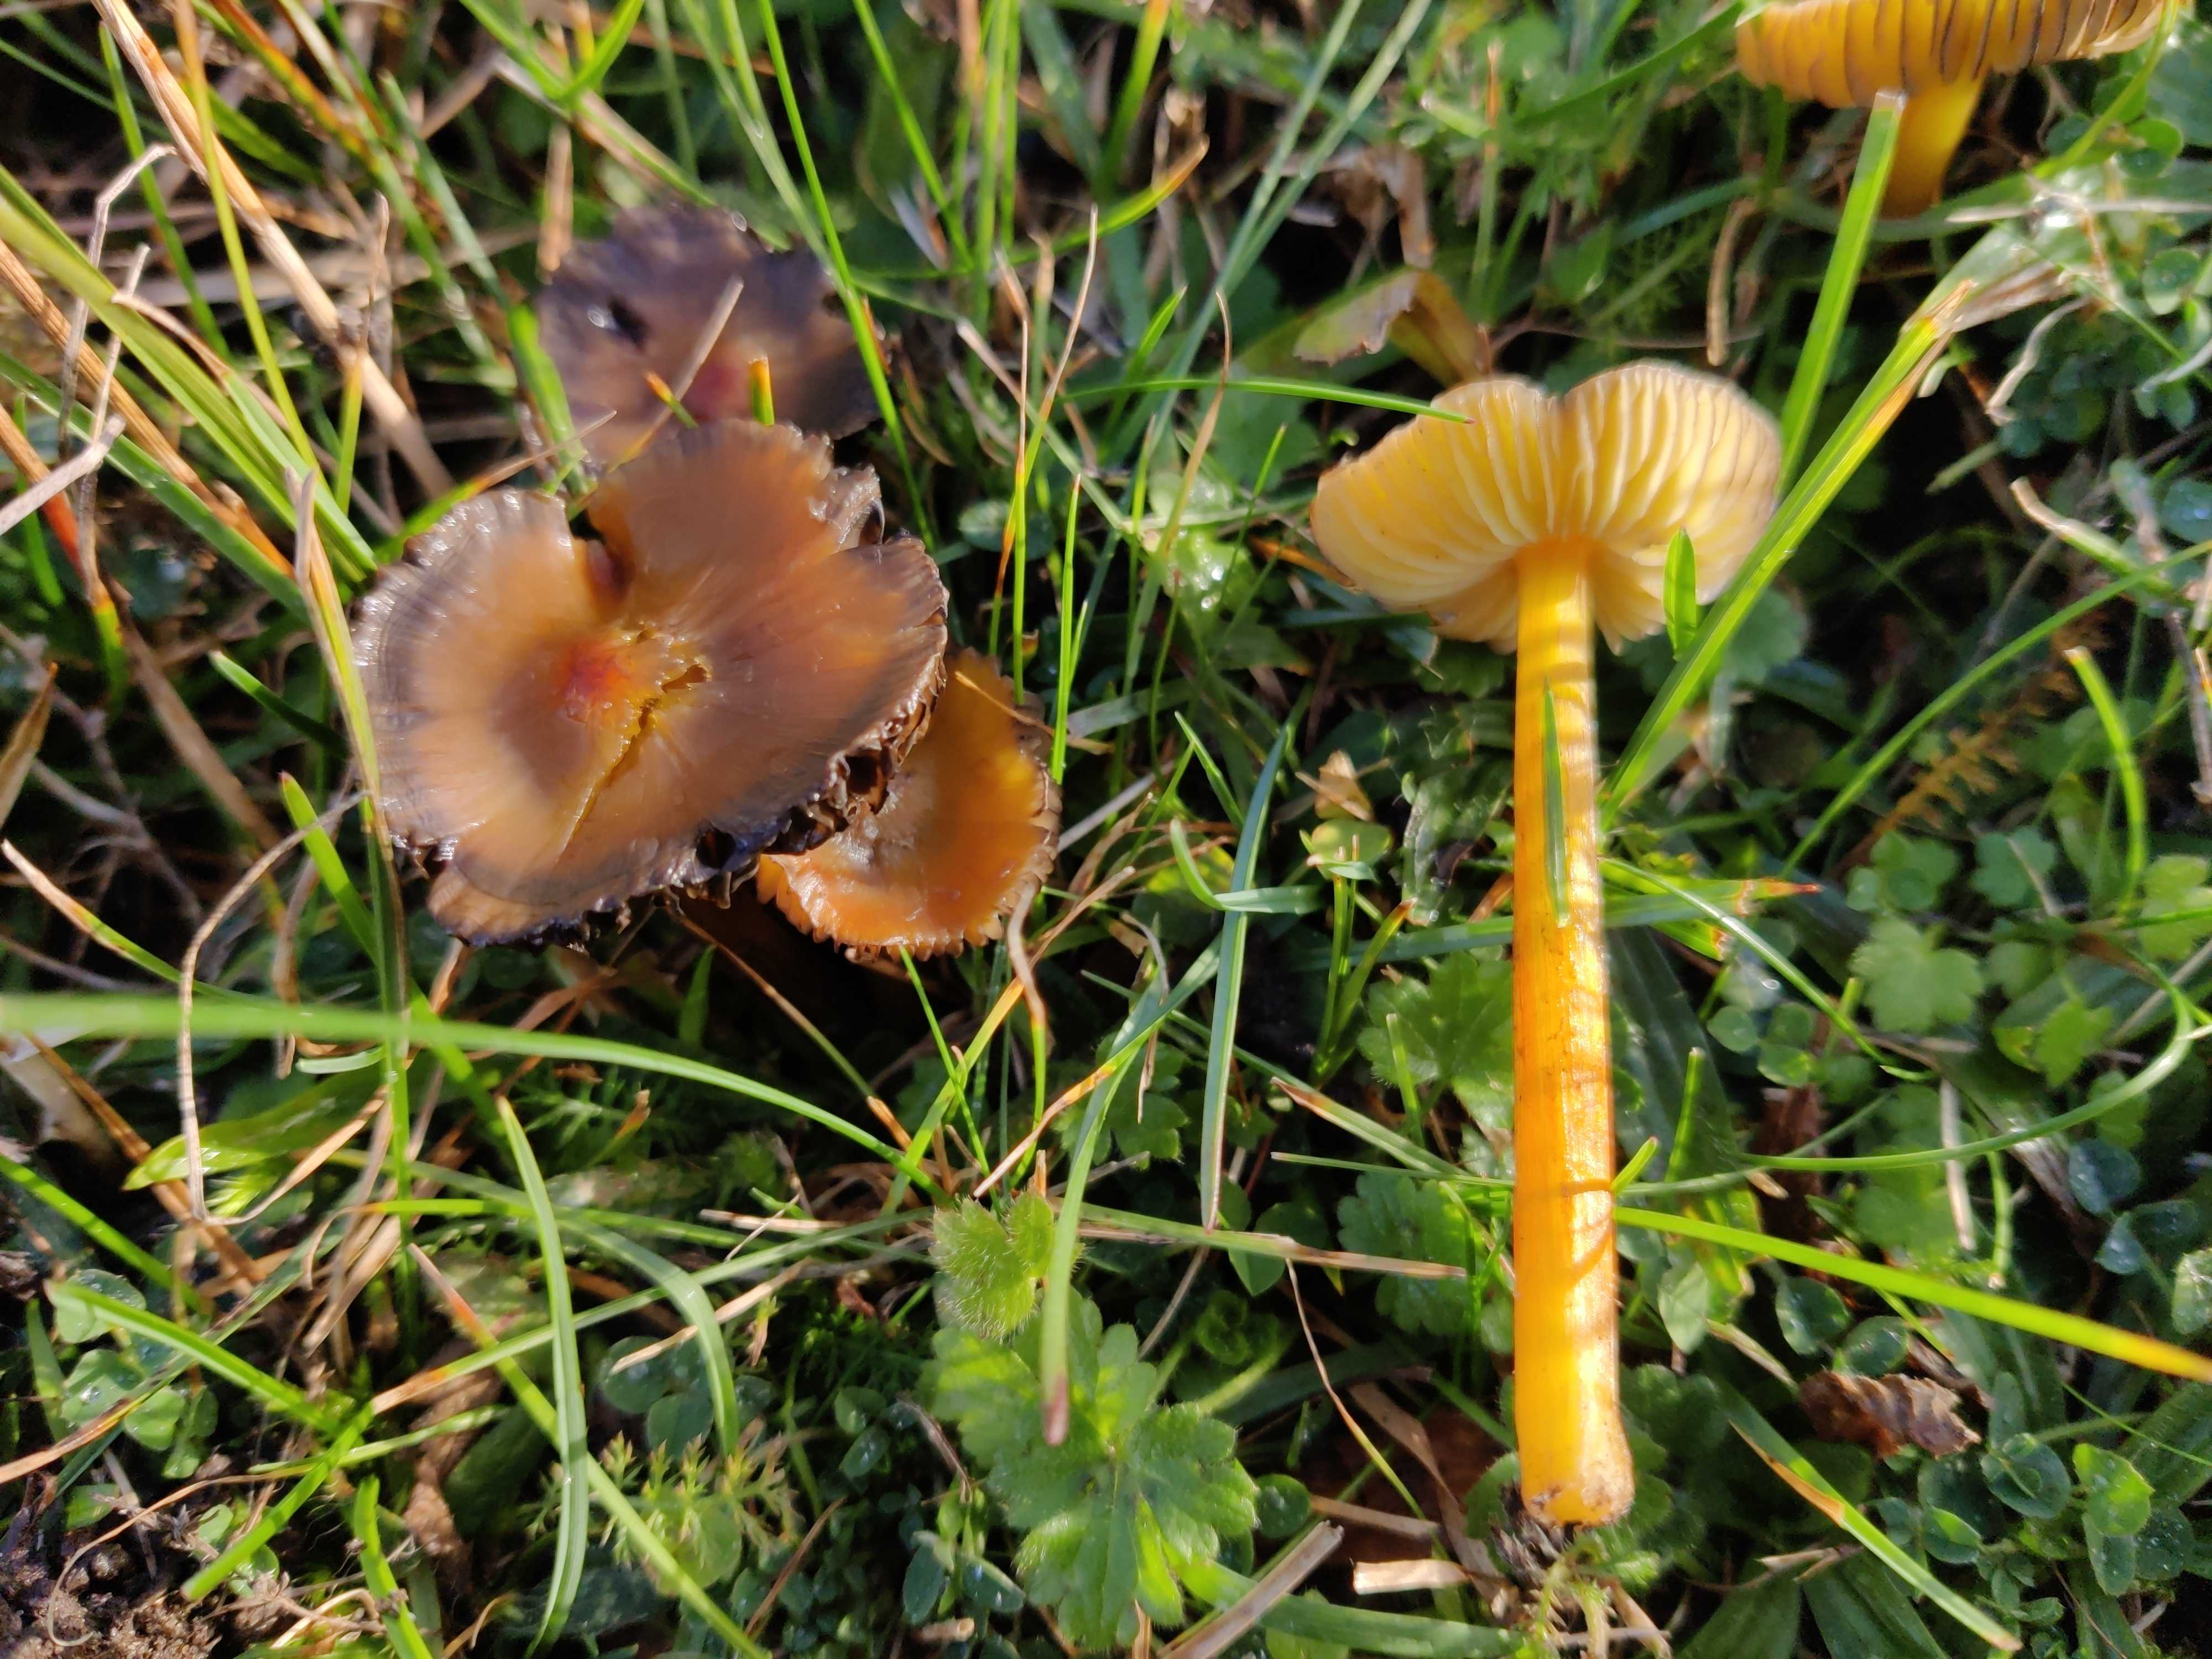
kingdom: Fungi
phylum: Basidiomycota
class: Agaricomycetes
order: Agaricales
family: Hygrophoraceae
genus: Hygrocybe
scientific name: Hygrocybe conica
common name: kegle-vokshat
